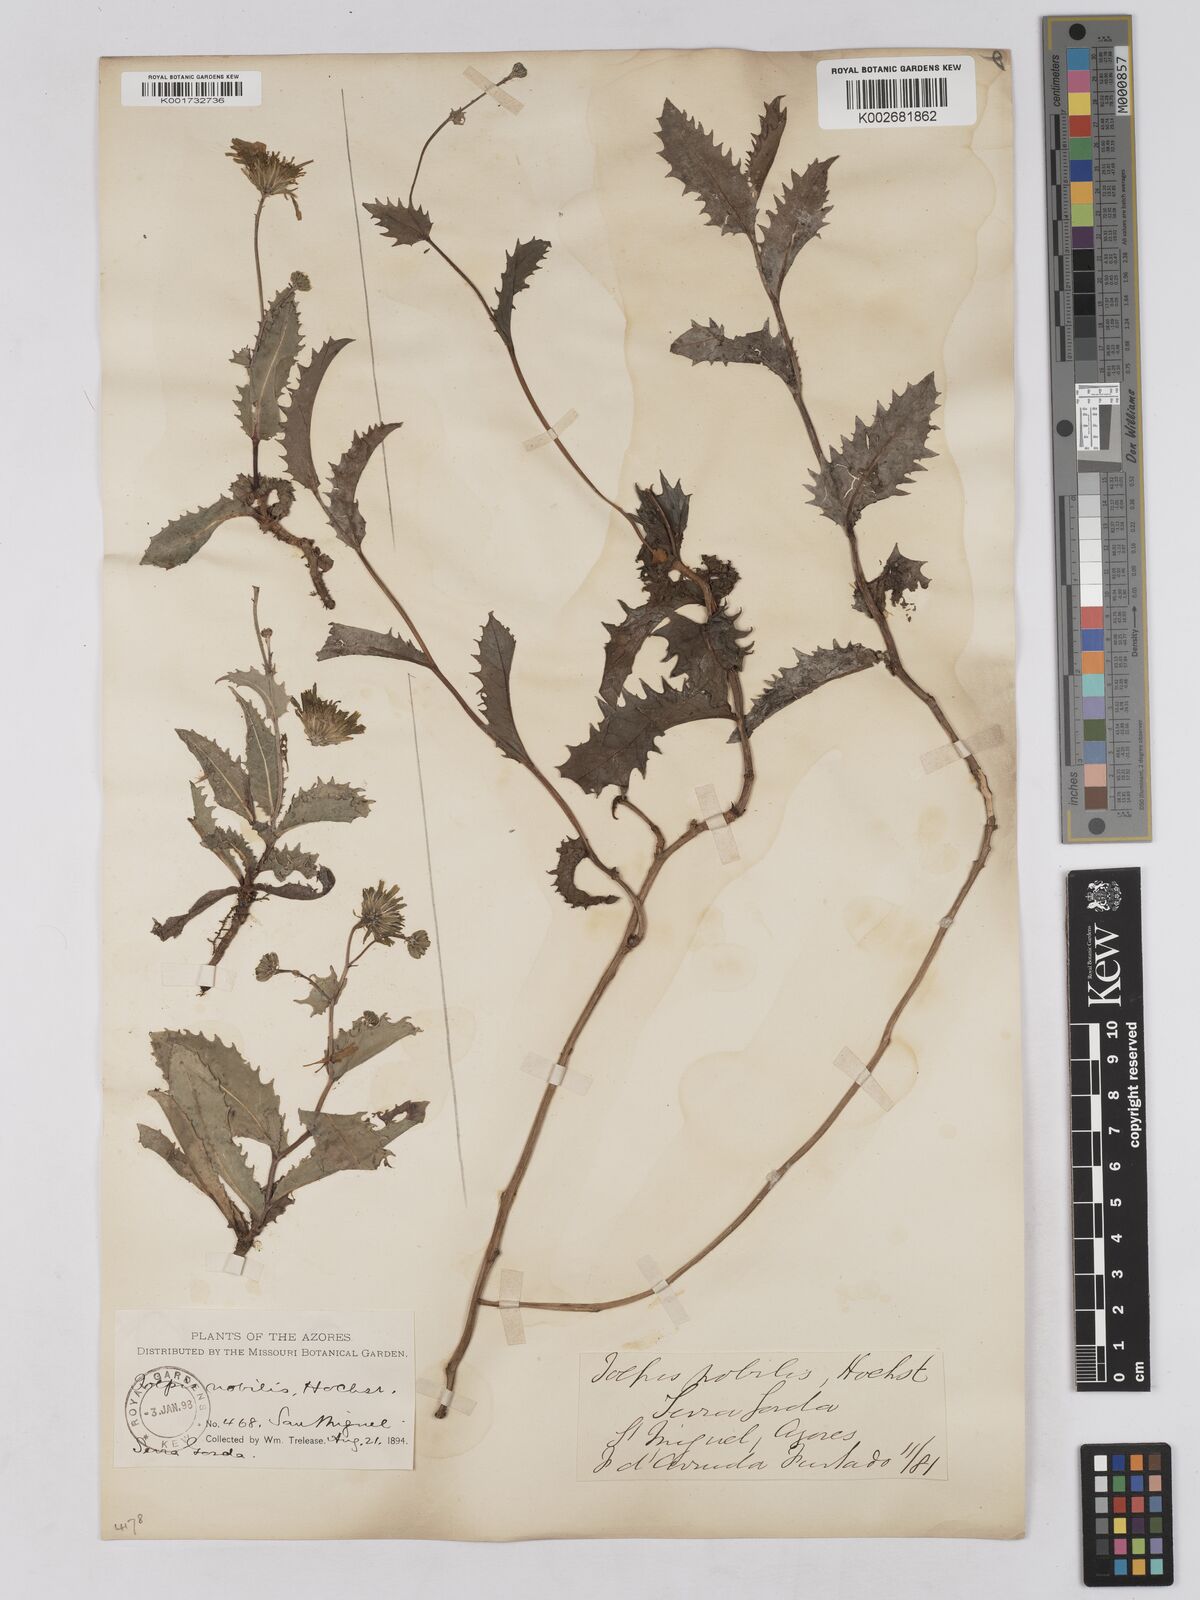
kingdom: Plantae
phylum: Tracheophyta
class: Magnoliopsida
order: Asterales
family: Asteraceae
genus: Tolpis
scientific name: Tolpis nobilis
